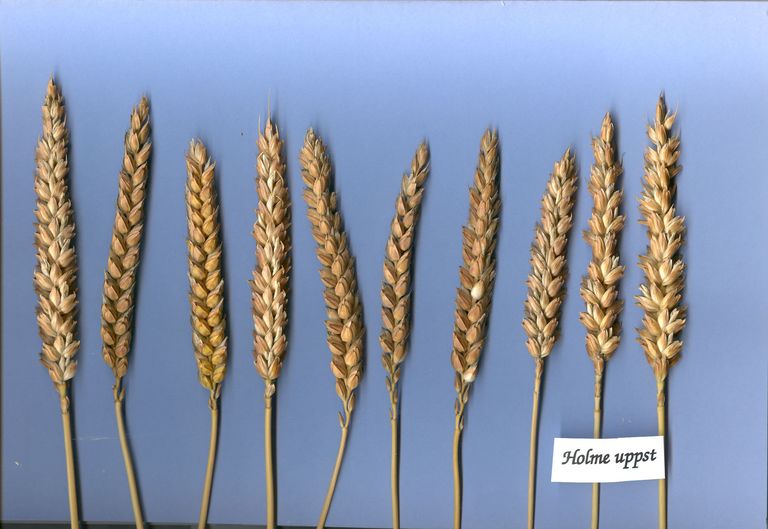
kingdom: Plantae
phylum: Tracheophyta
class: Liliopsida
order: Poales
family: Poaceae
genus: Triticum
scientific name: Triticum aestivum
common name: Common wheat
